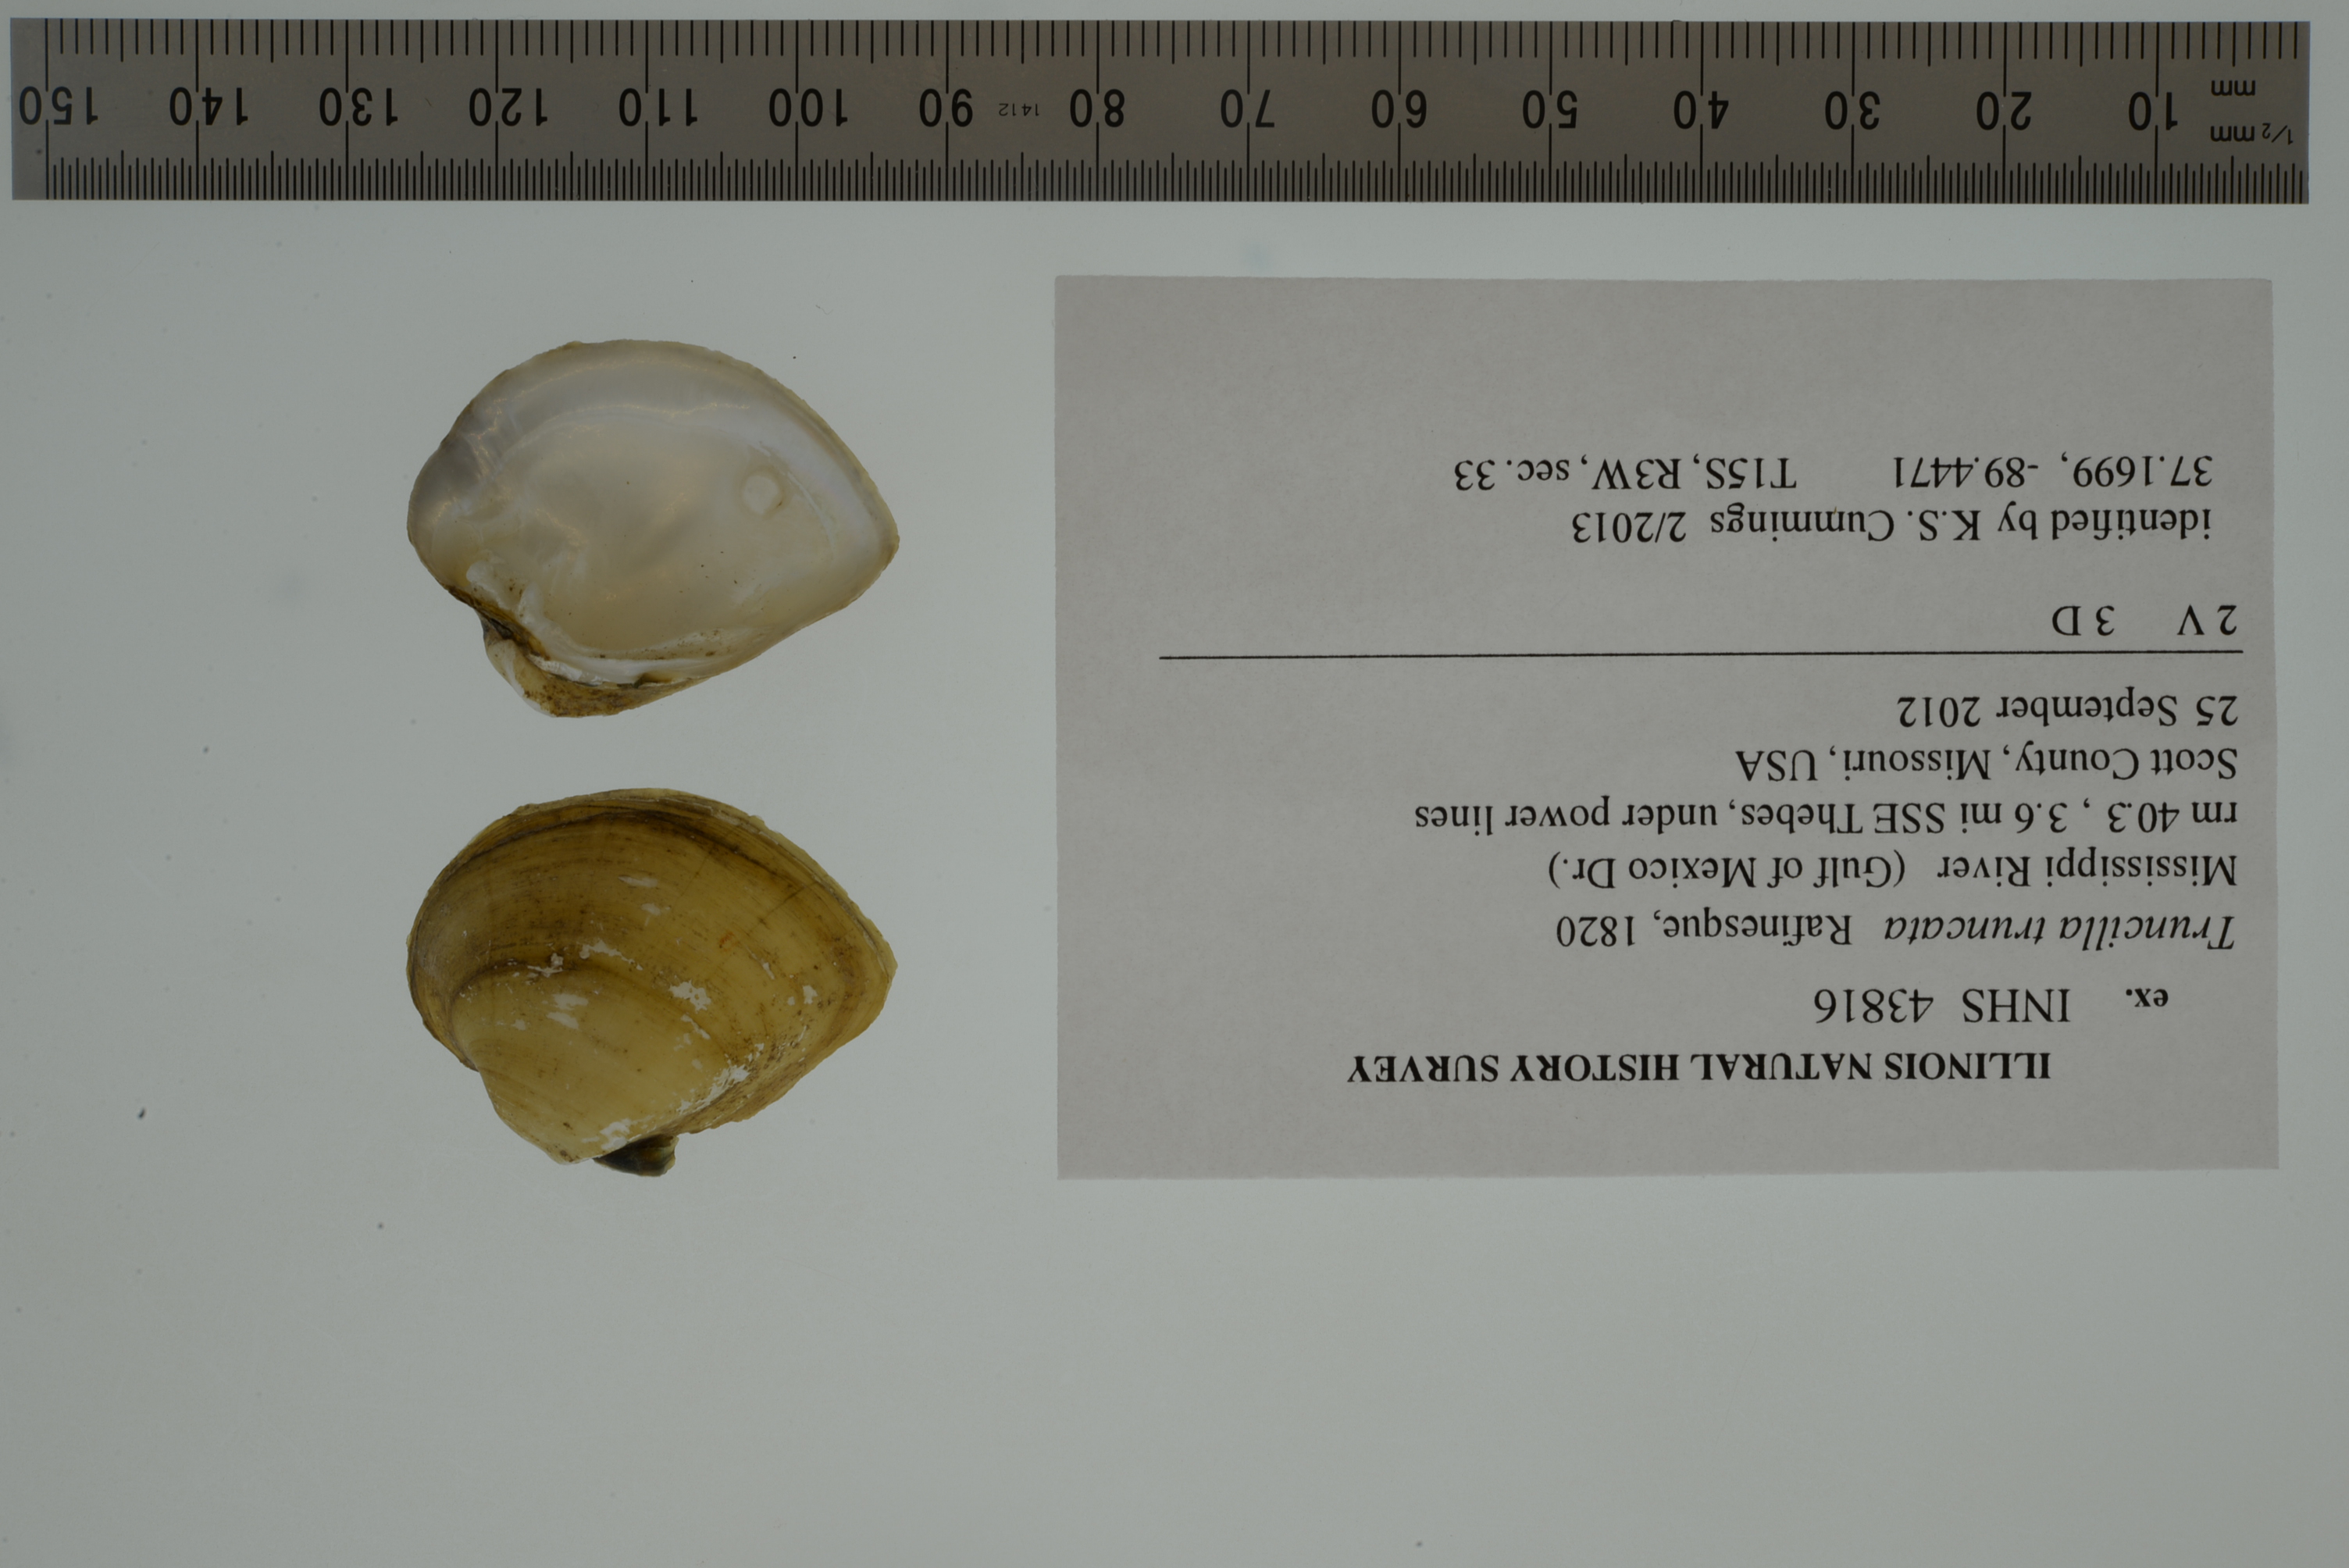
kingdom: Animalia
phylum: Mollusca
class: Bivalvia
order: Unionida
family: Unionidae
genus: Truncilla
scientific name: Truncilla truncata
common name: Deertoe
